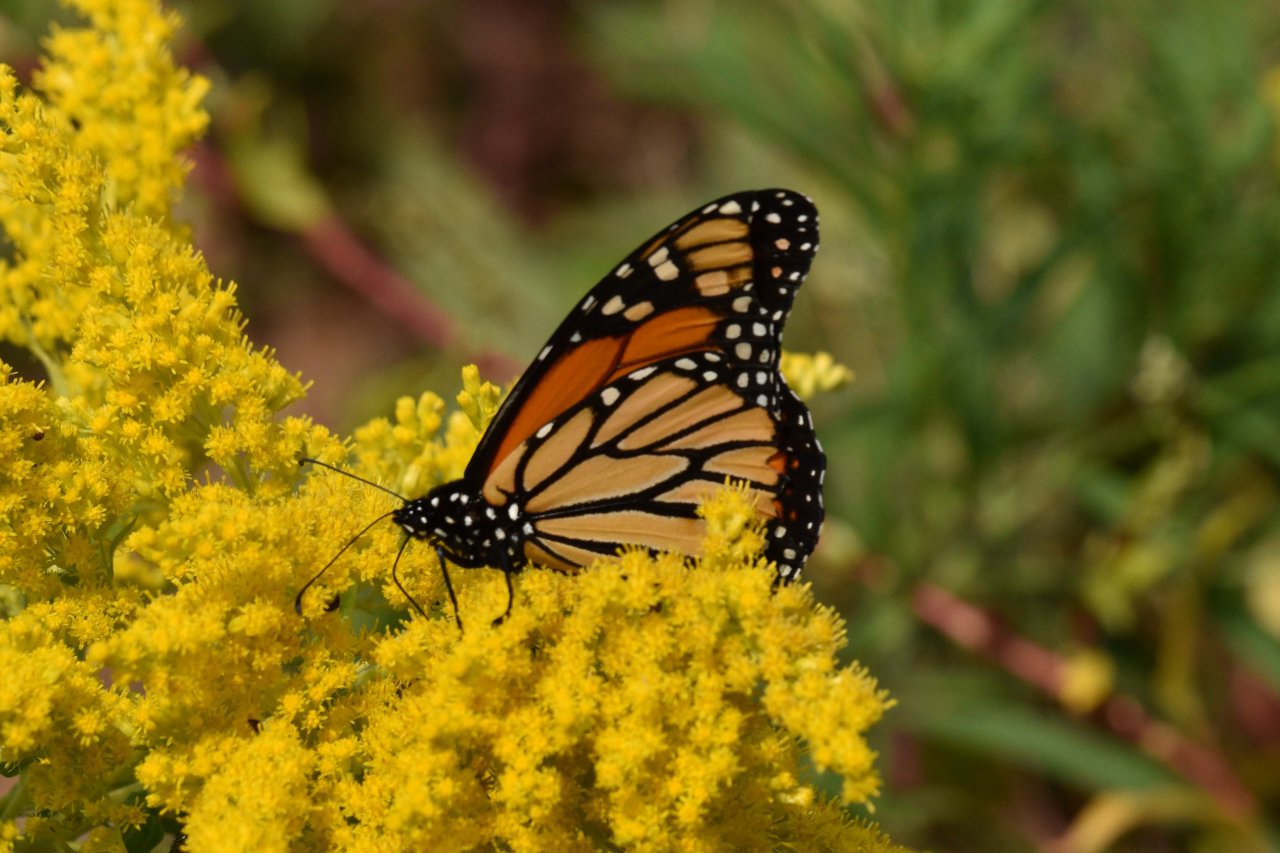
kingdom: Animalia
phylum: Arthropoda
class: Insecta
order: Lepidoptera
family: Nymphalidae
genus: Danaus
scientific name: Danaus plexippus
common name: Monarch
